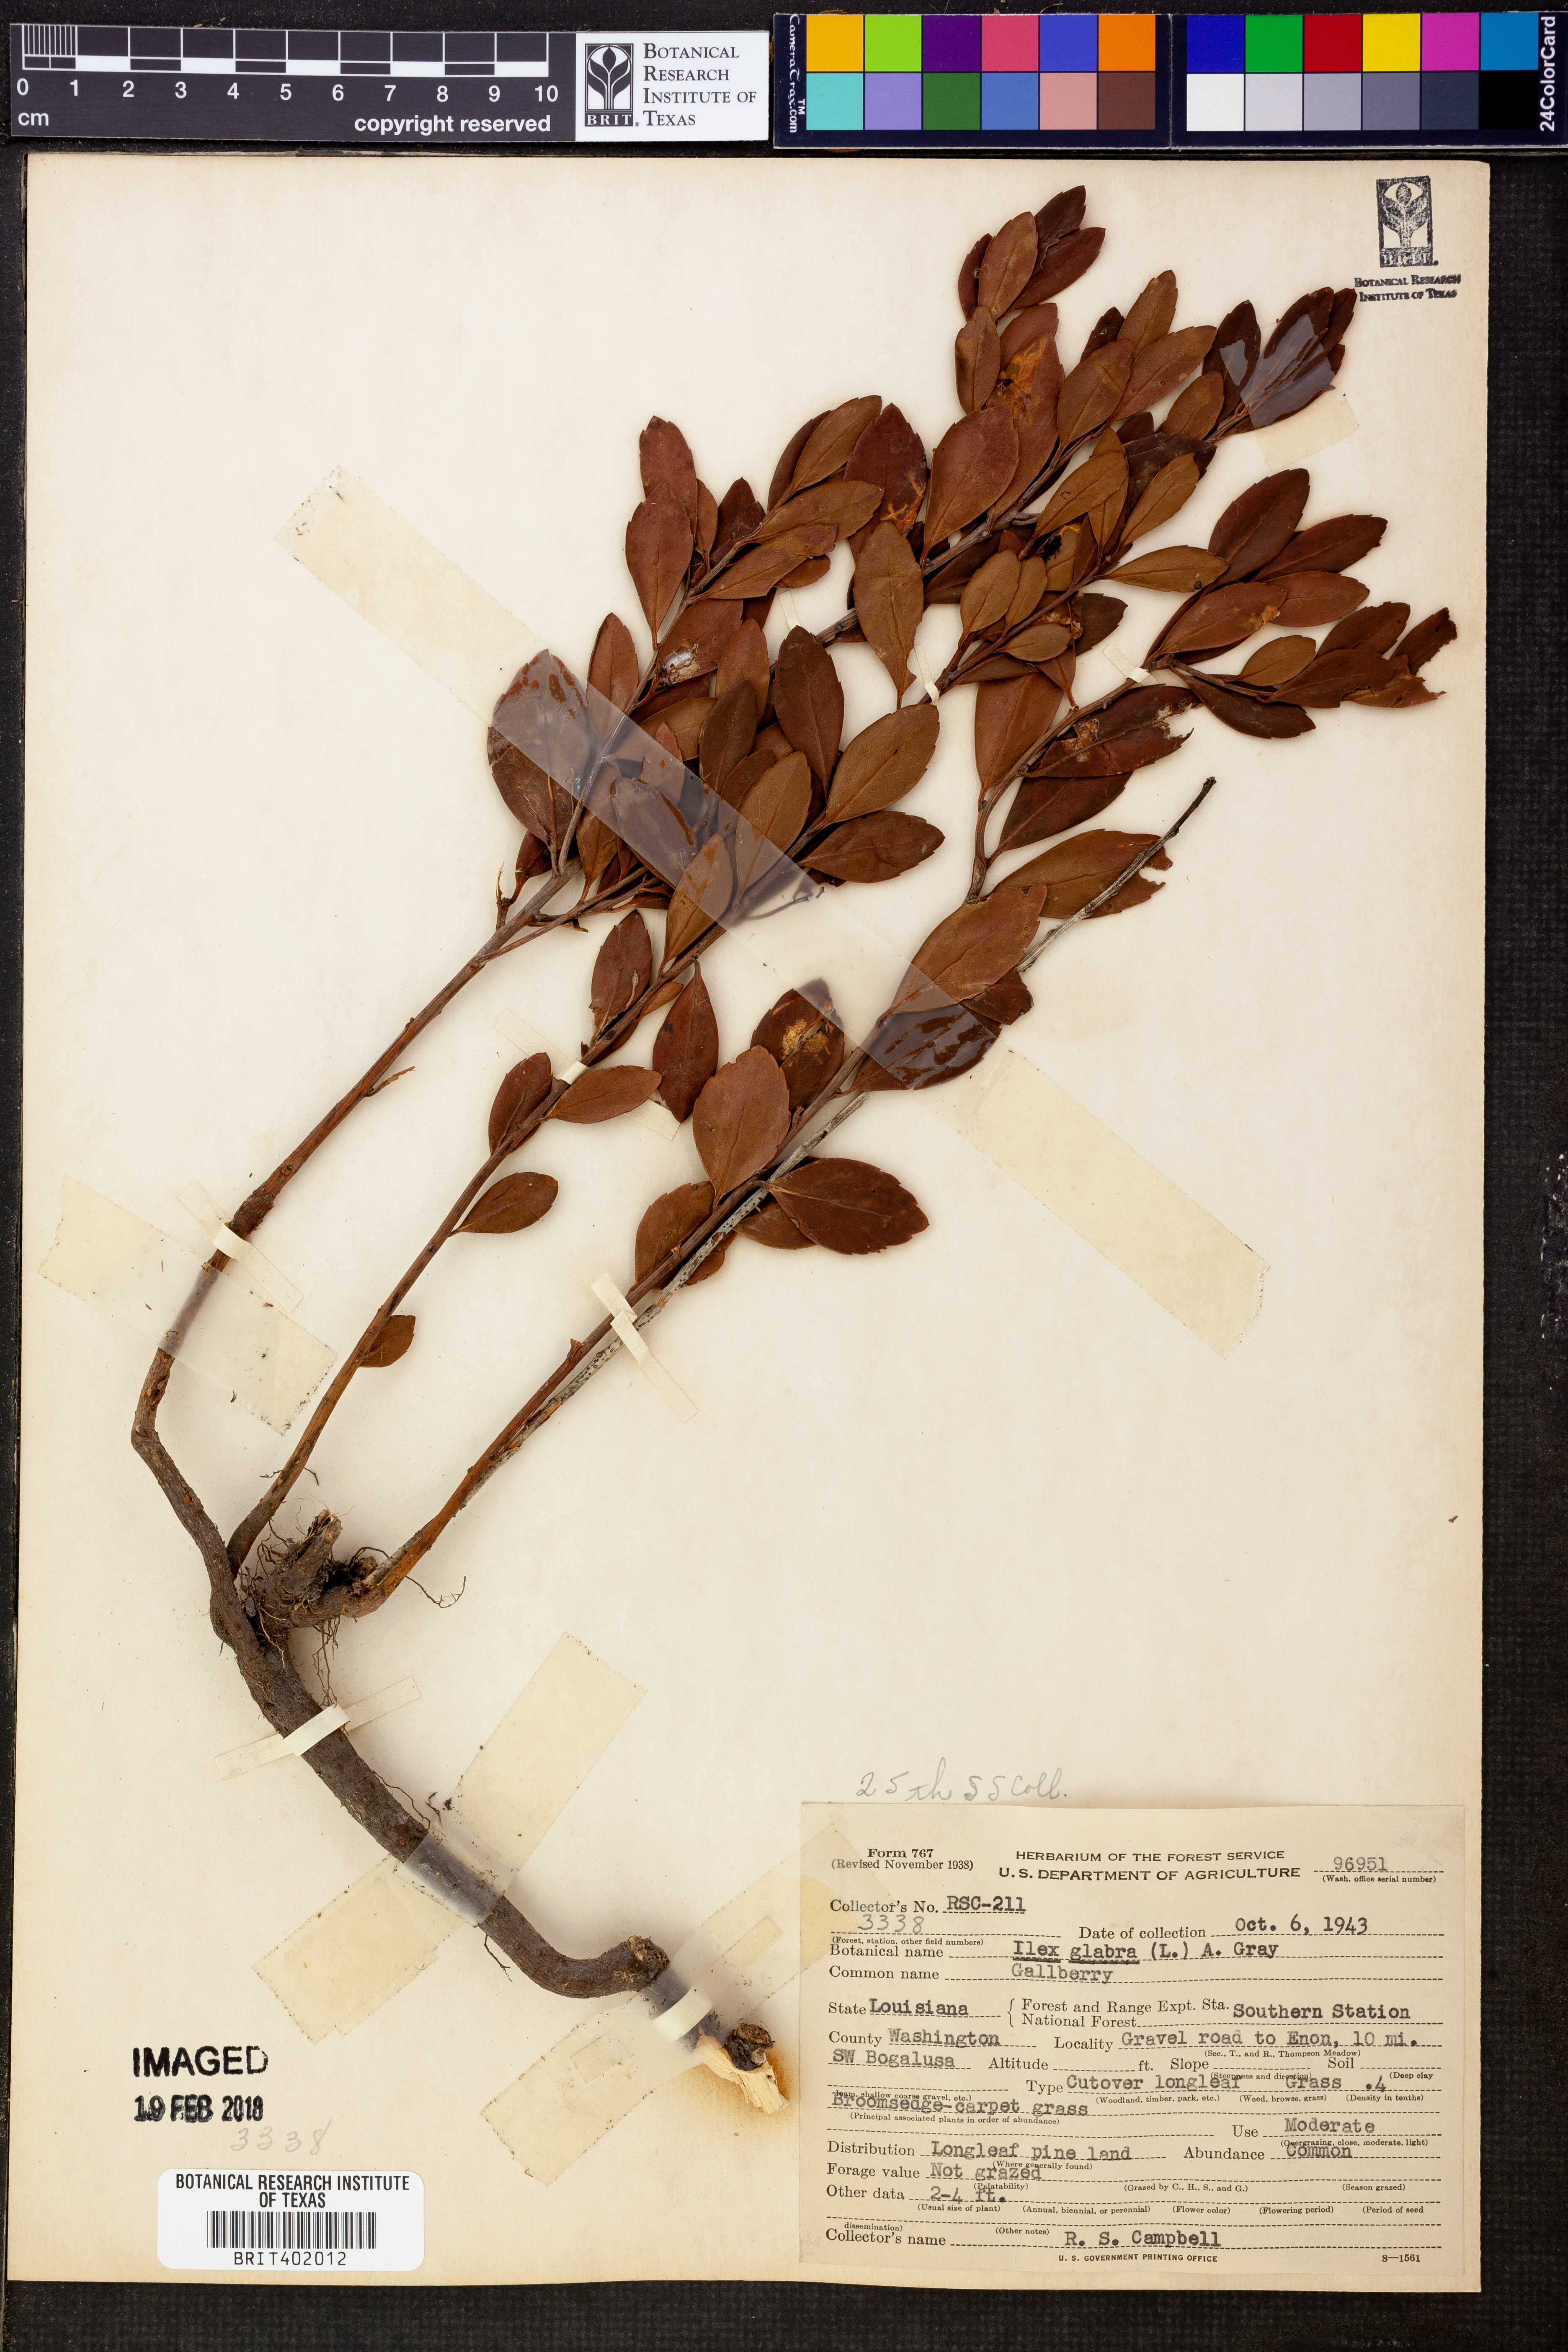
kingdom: Plantae
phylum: Tracheophyta
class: Magnoliopsida
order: Aquifoliales
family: Aquifoliaceae
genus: Ilex
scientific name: Ilex glabra
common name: Bitter gallberry
